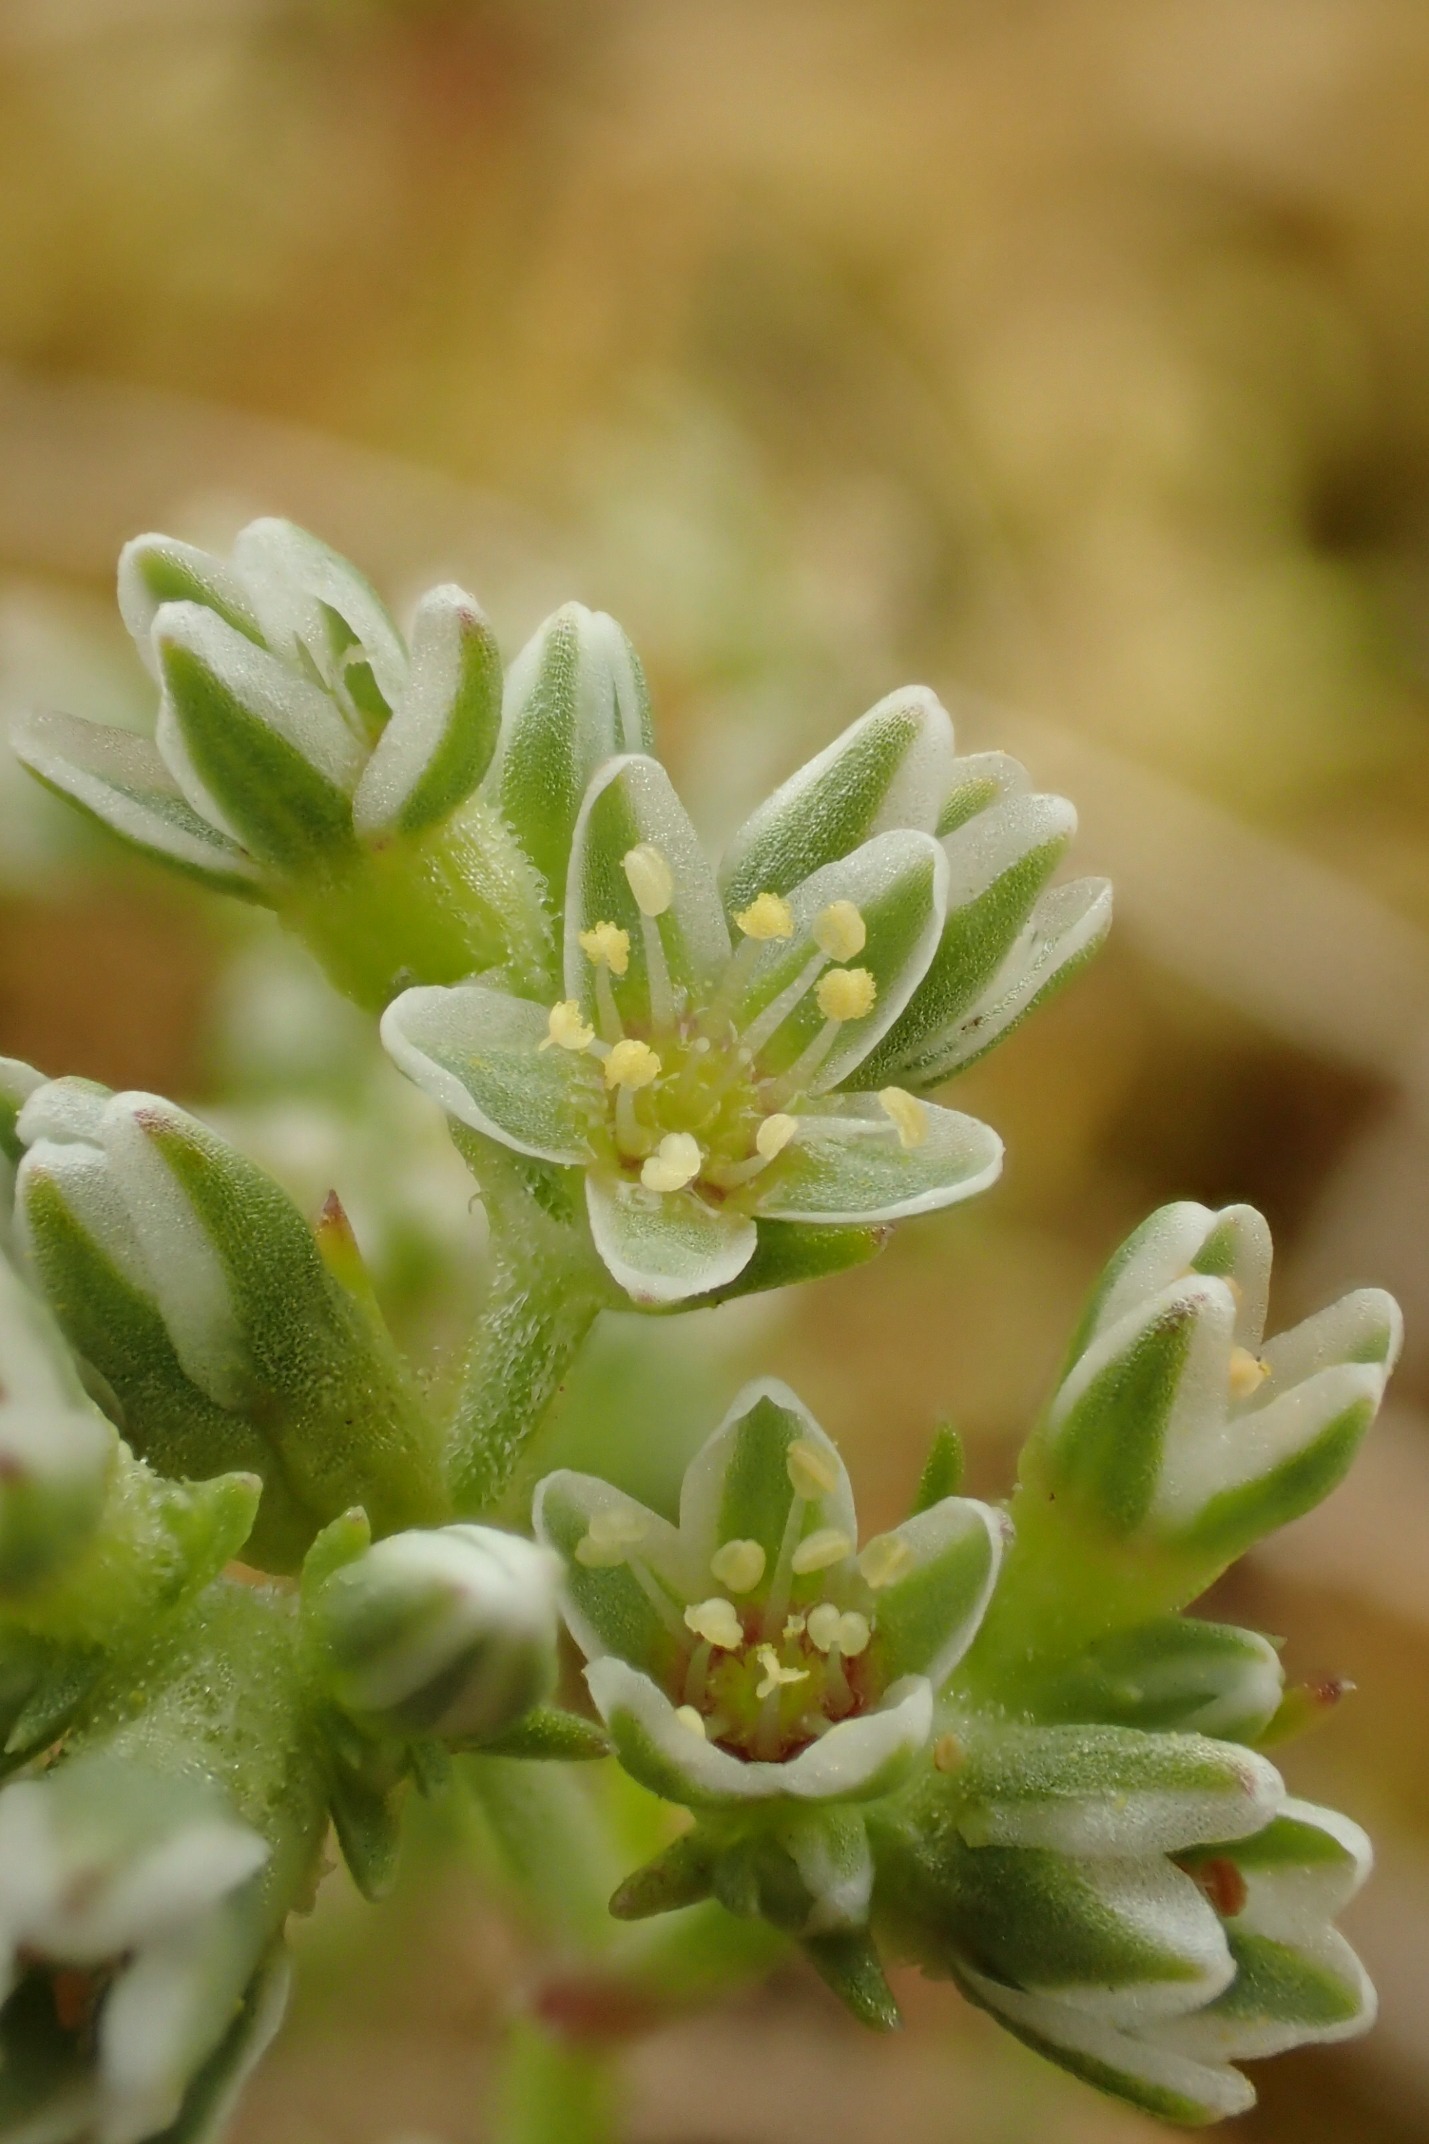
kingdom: Plantae
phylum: Tracheophyta
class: Magnoliopsida
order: Caryophyllales
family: Caryophyllaceae
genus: Scleranthus
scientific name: Scleranthus perennis
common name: Flerårig knavel
